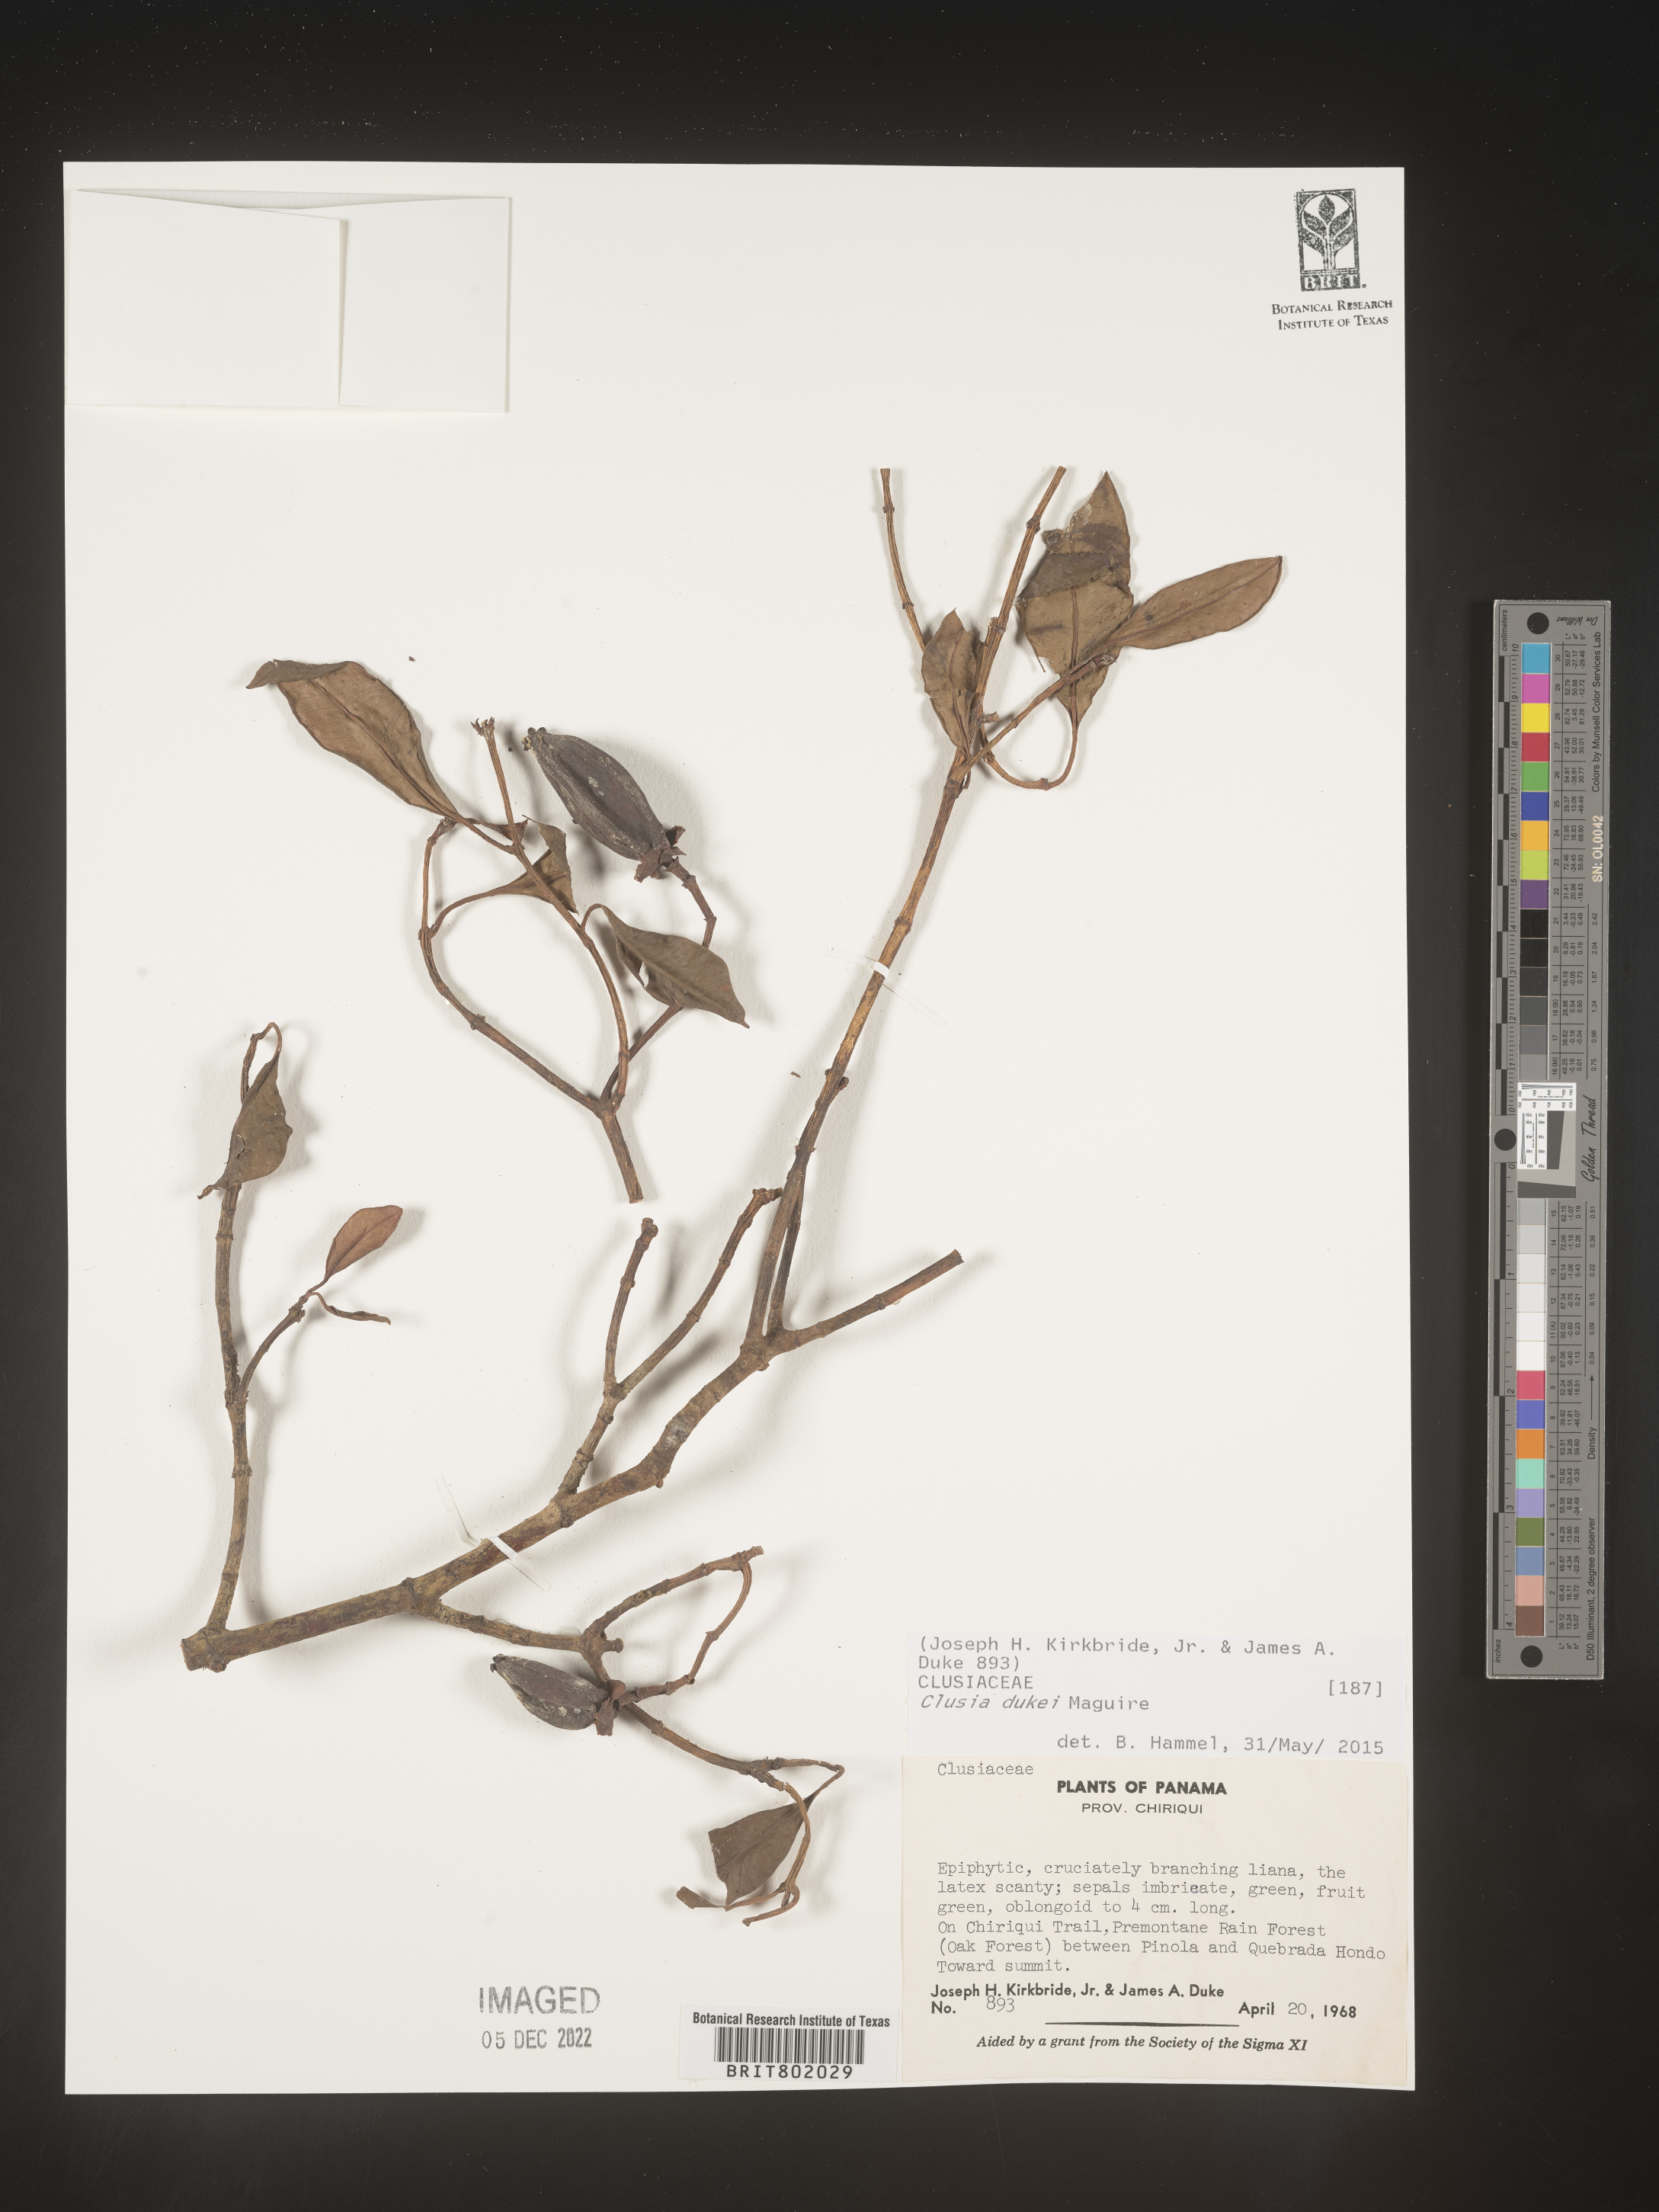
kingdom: Plantae
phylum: Tracheophyta
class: Magnoliopsida
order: Malpighiales
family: Clusiaceae
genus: Clusia
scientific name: Clusia
